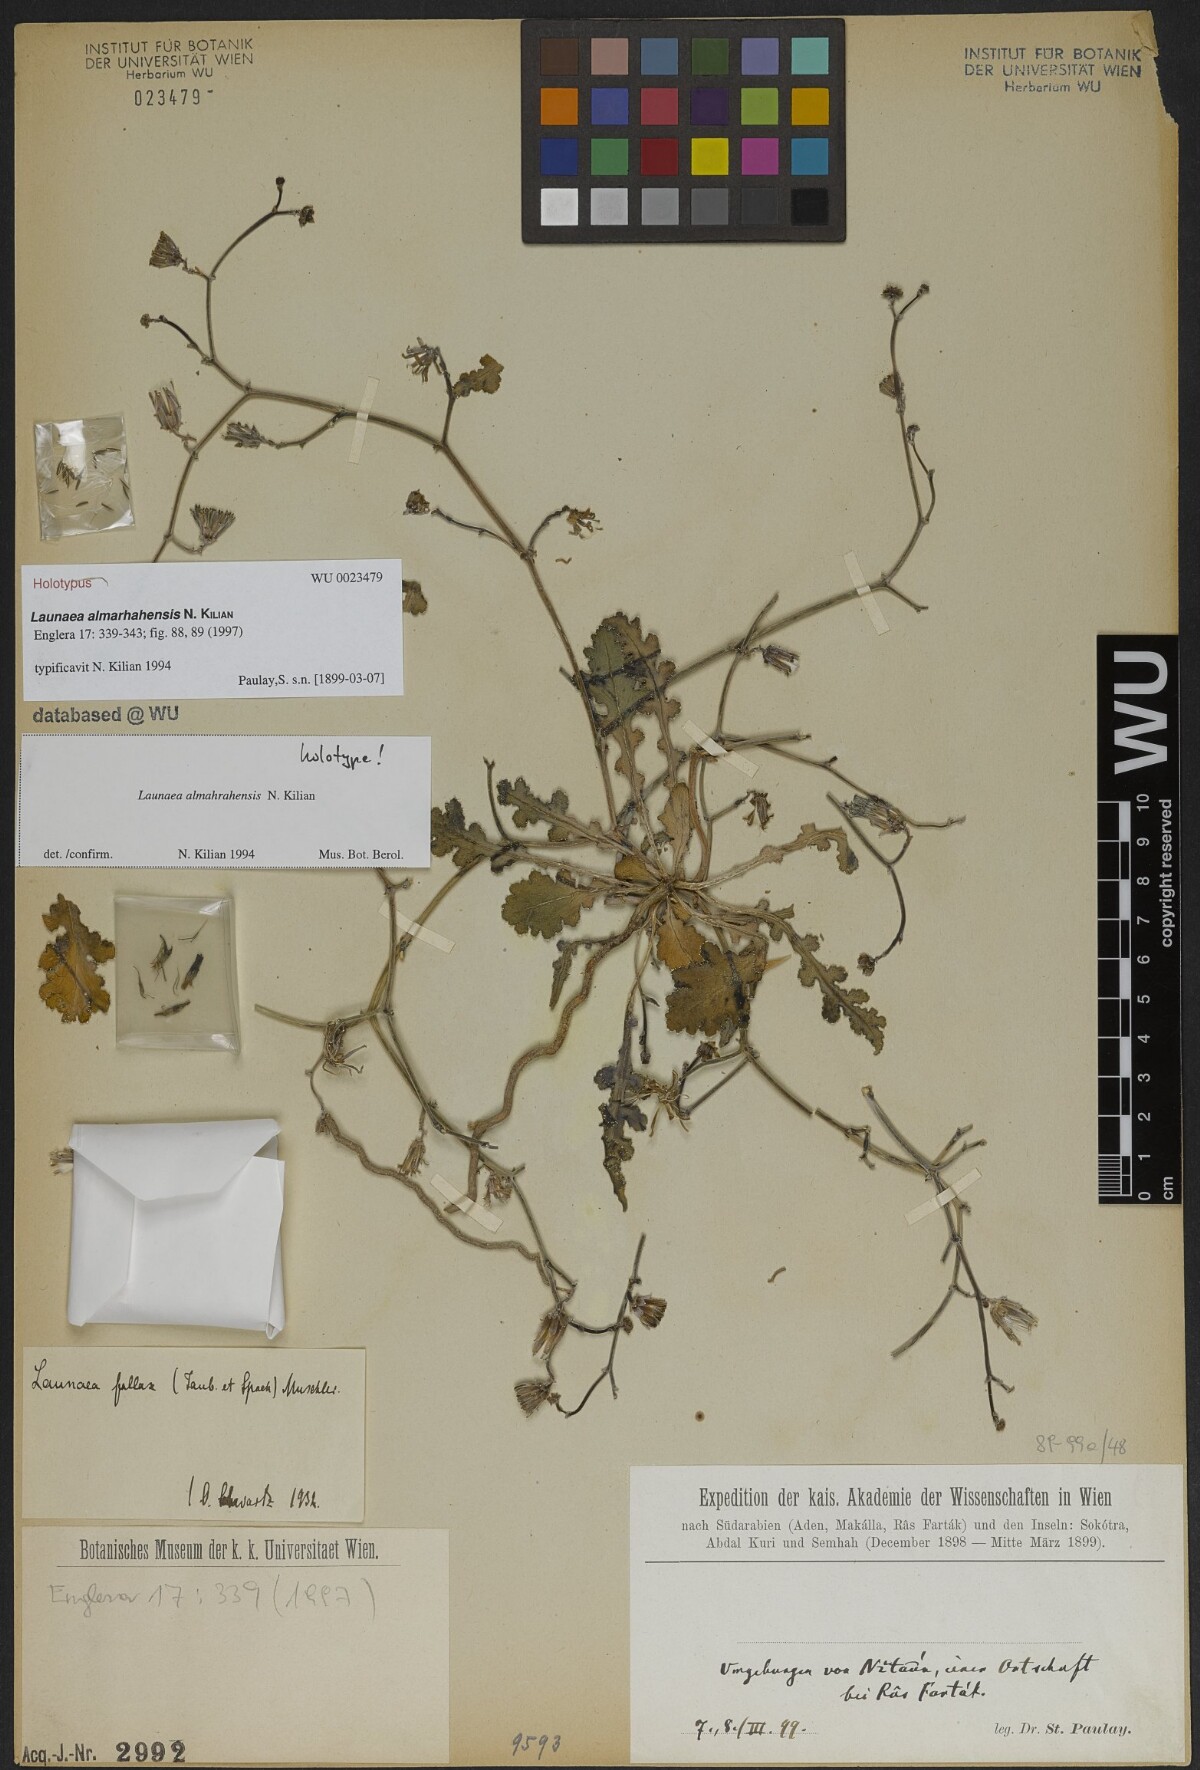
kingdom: Plantae
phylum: Tracheophyta
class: Magnoliopsida
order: Asterales
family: Asteraceae
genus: Launaea
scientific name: Launaea almahrahensis
